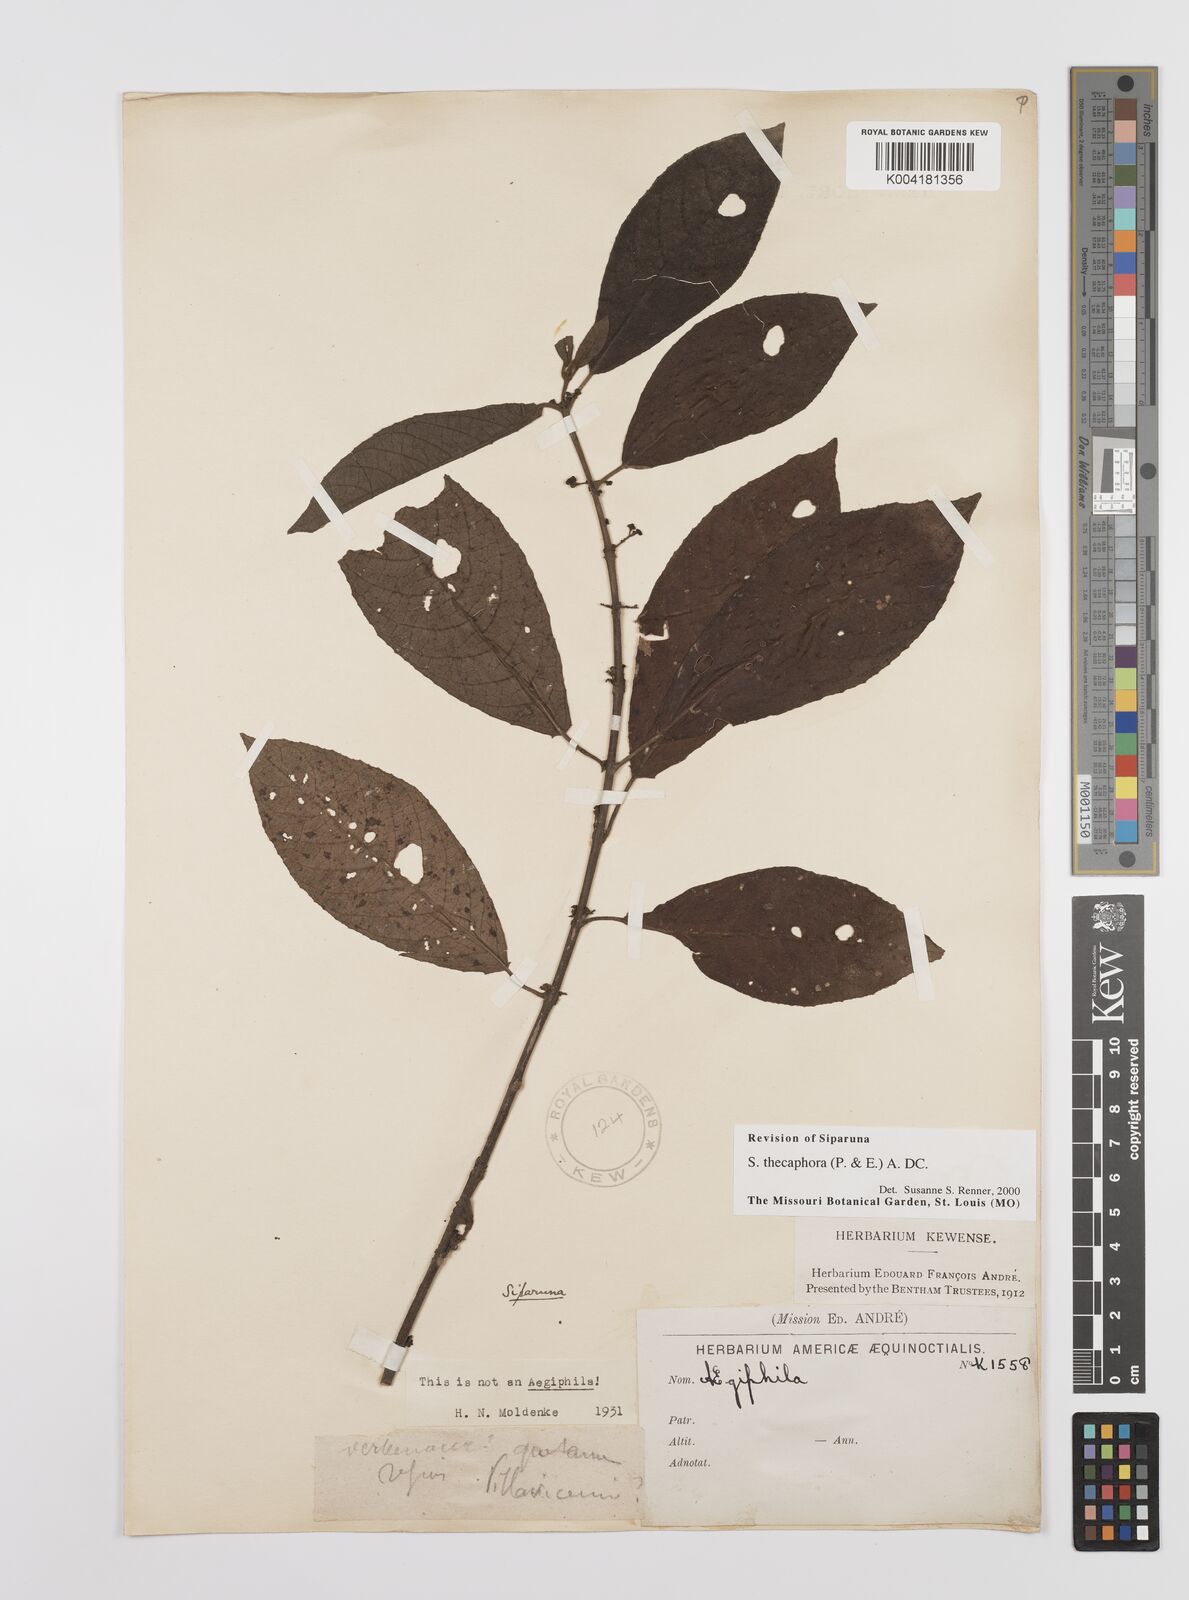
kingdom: Plantae
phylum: Tracheophyta
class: Magnoliopsida
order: Laurales
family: Siparunaceae
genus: Siparuna
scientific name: Siparuna thecaphora
